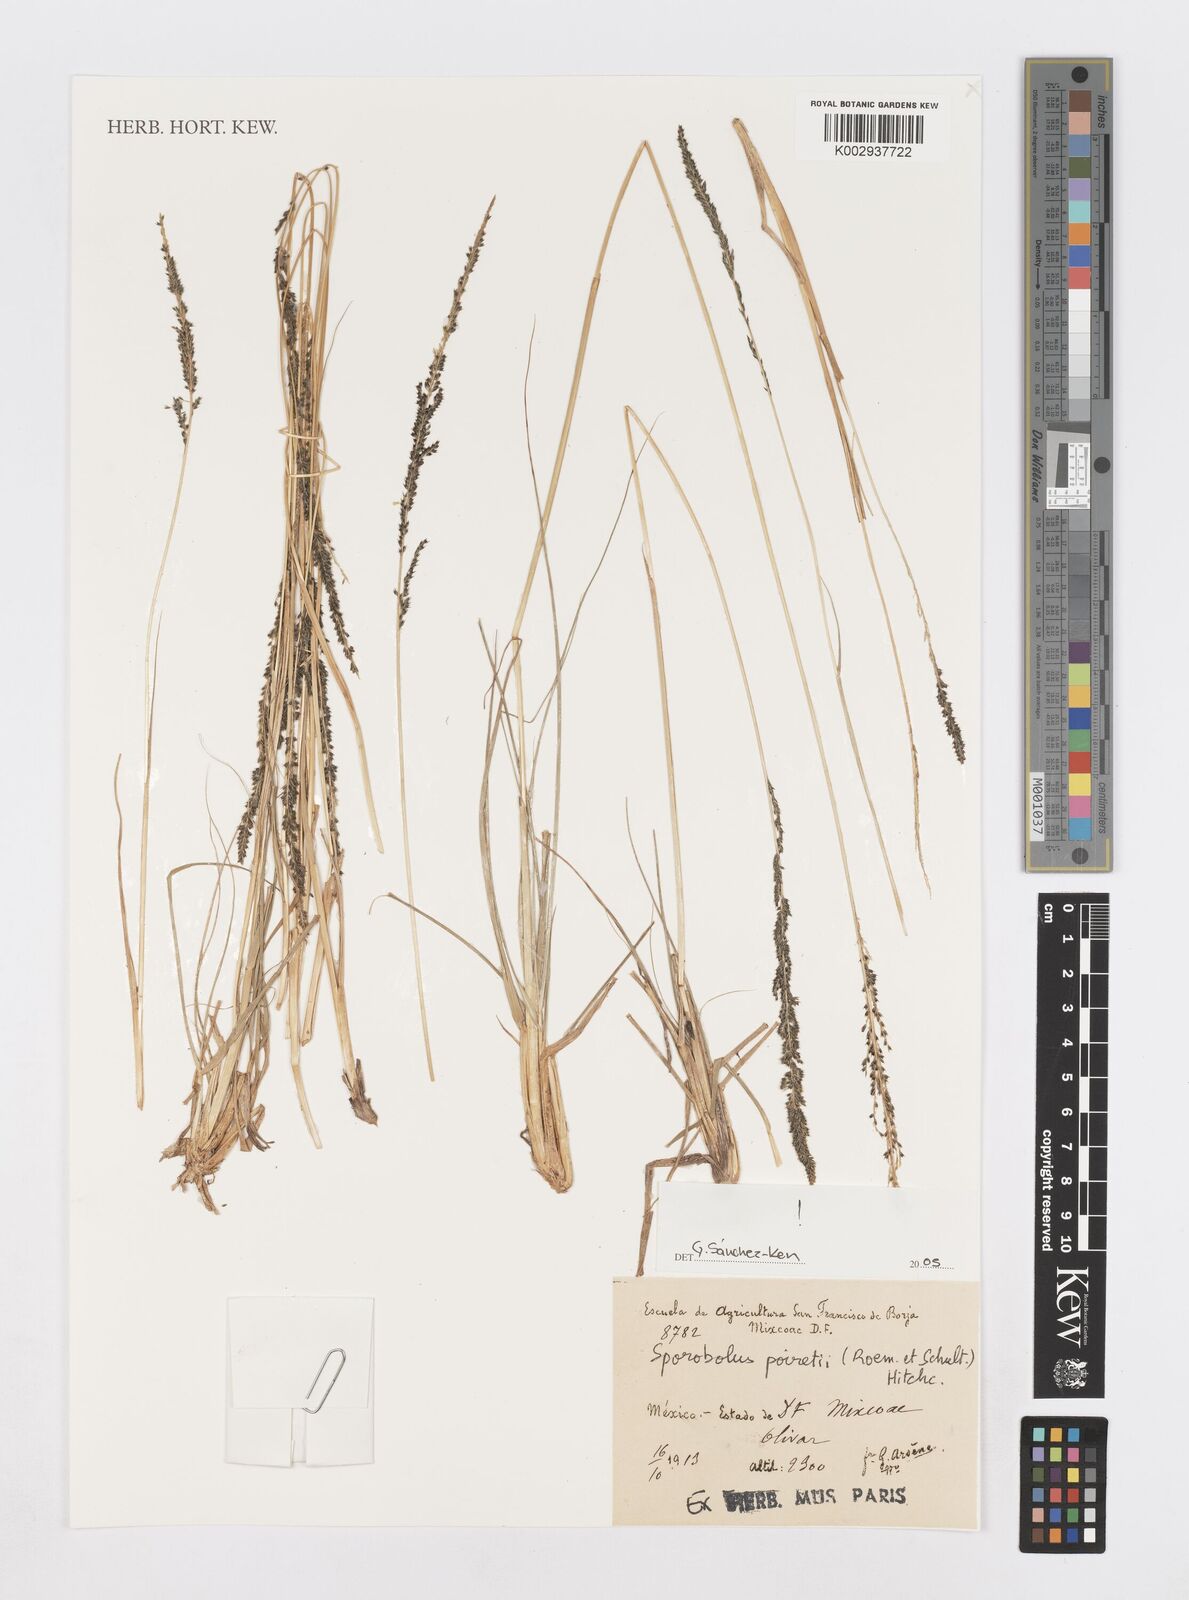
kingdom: Plantae
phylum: Tracheophyta
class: Liliopsida
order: Poales
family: Poaceae
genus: Sporobolus
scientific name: Sporobolus junceus
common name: Lizard grass
